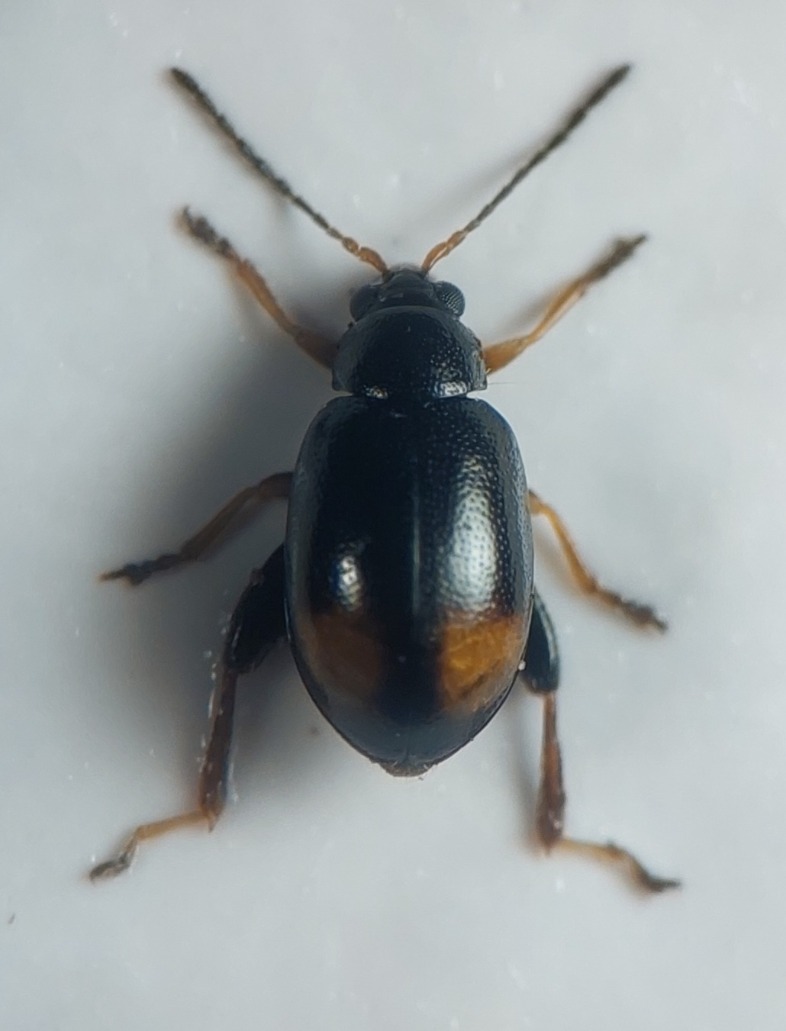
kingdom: Animalia
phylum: Arthropoda
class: Insecta
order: Coleoptera
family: Chrysomelidae
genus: Longitarsus
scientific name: Longitarsus holsaticus
